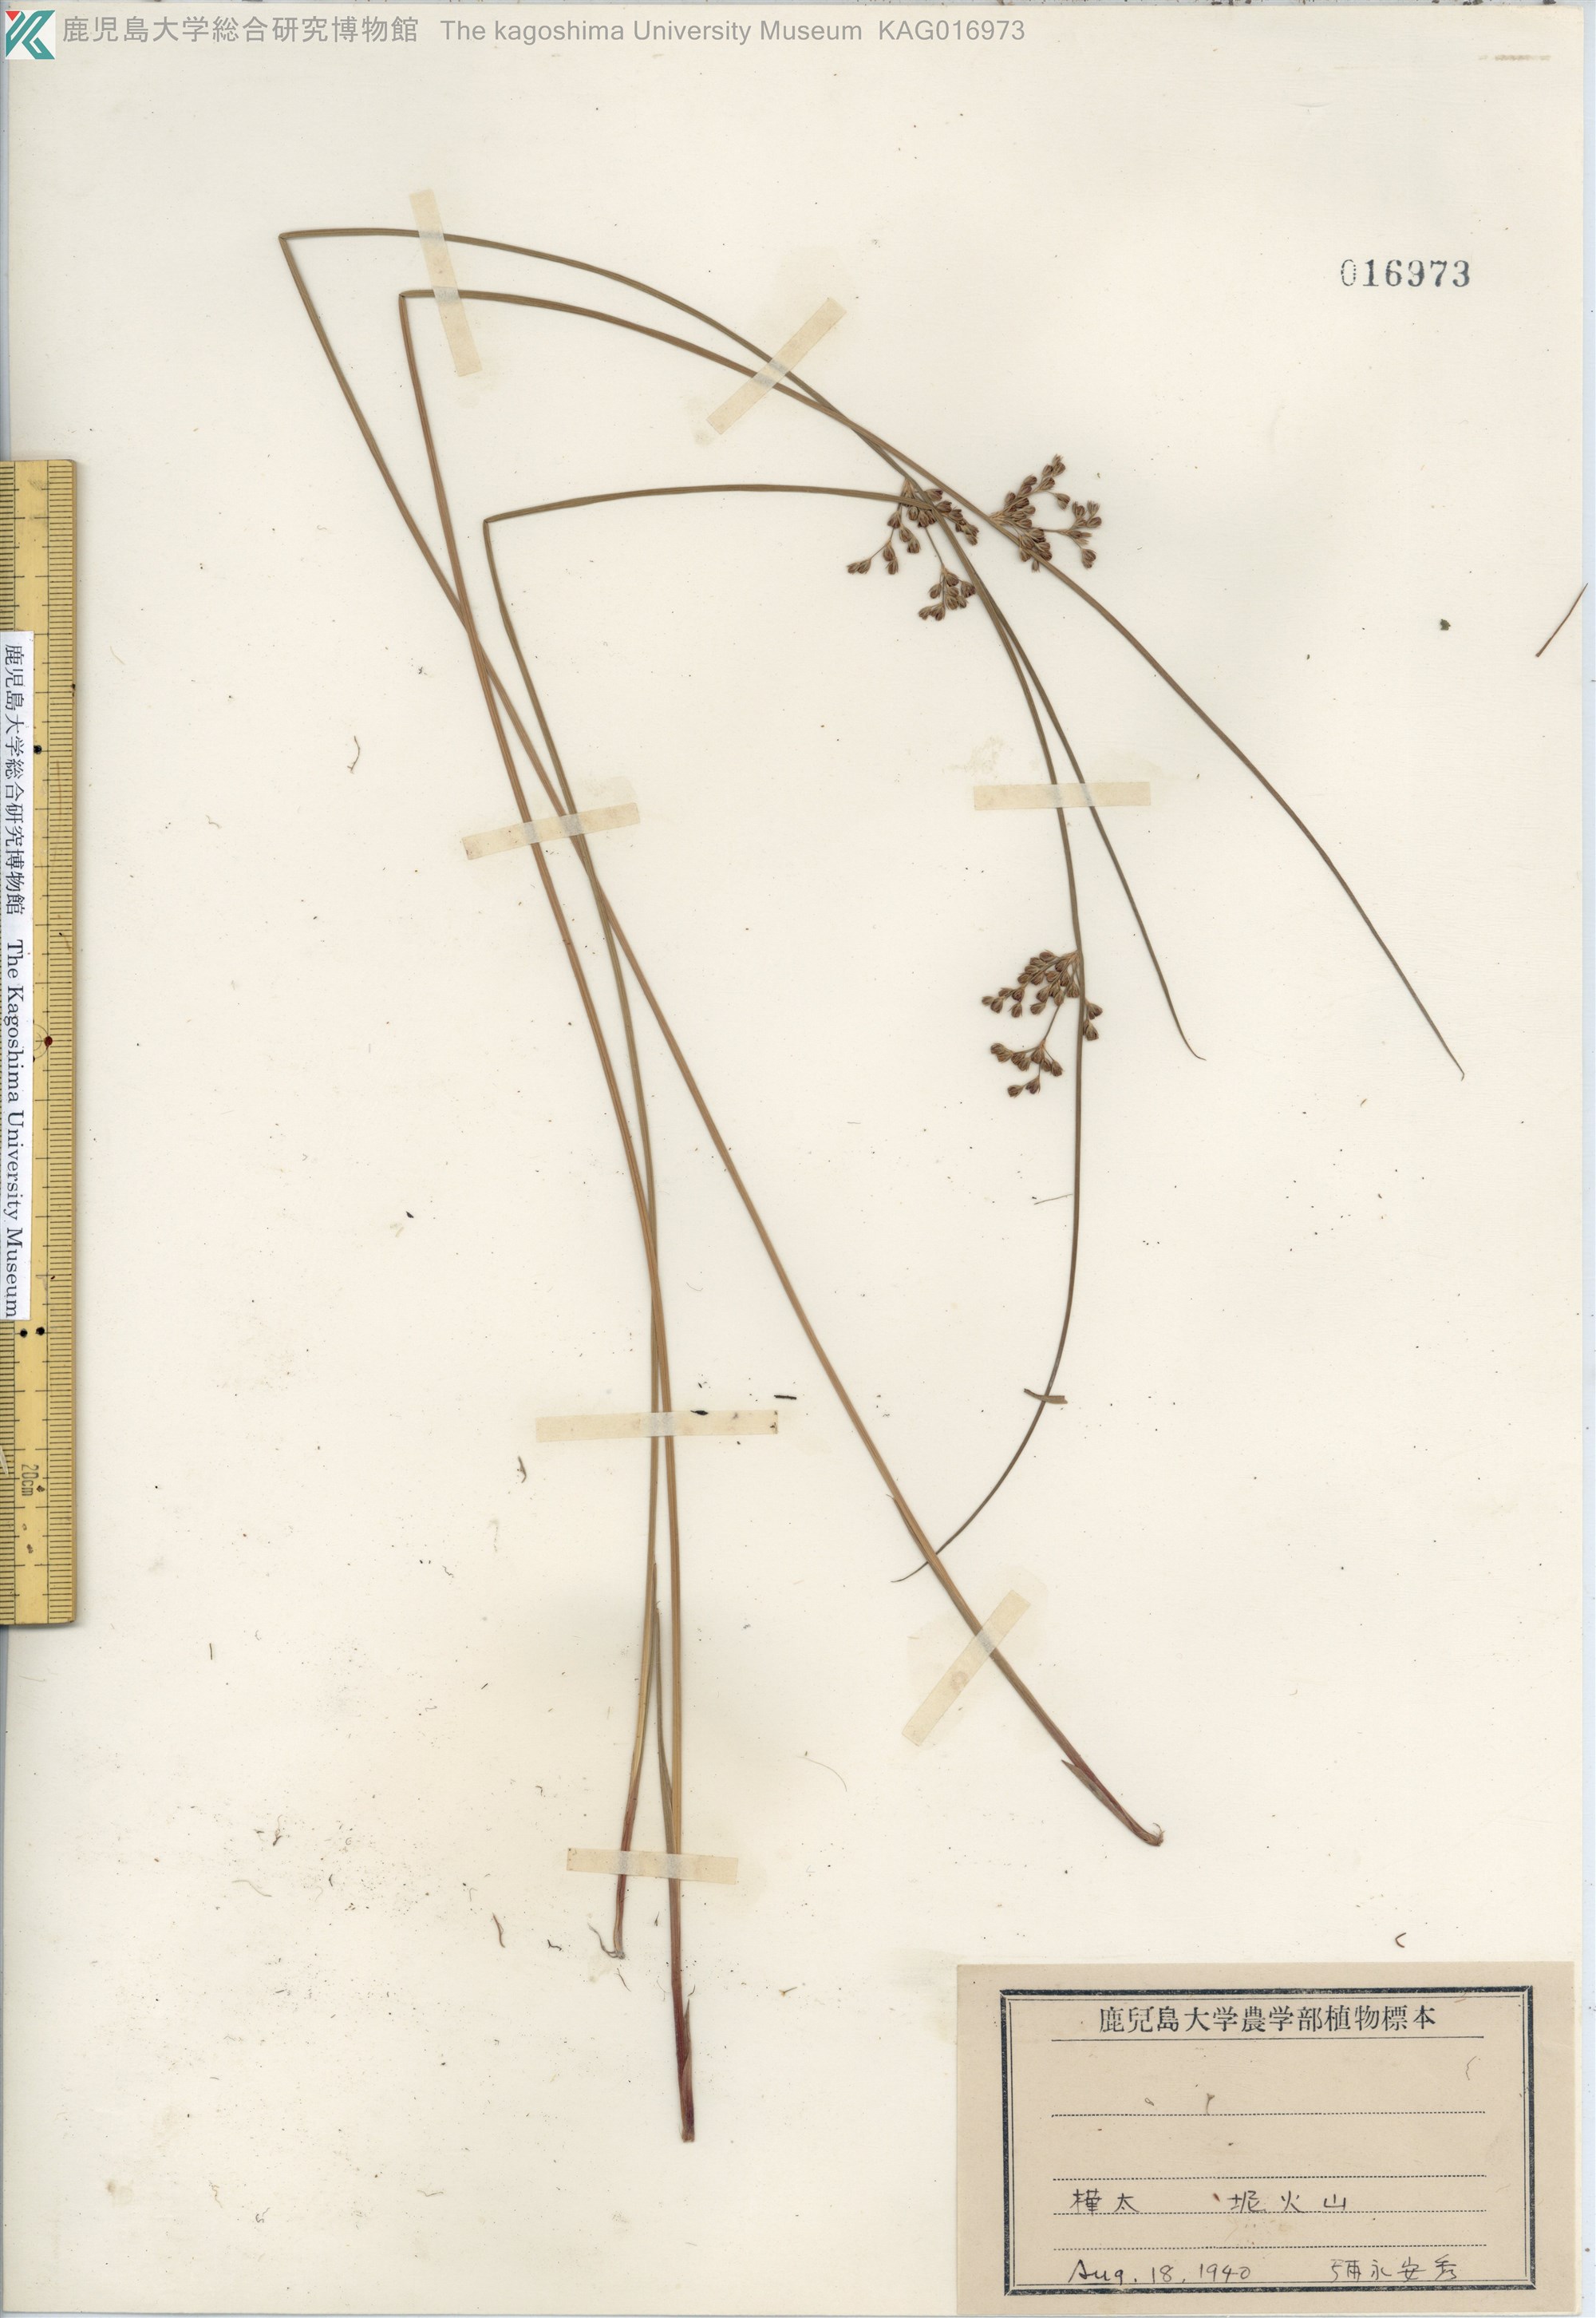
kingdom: Plantae
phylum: Tracheophyta
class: Liliopsida
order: Poales
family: Juncaceae
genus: Juncus
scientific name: Juncus gracillimus
